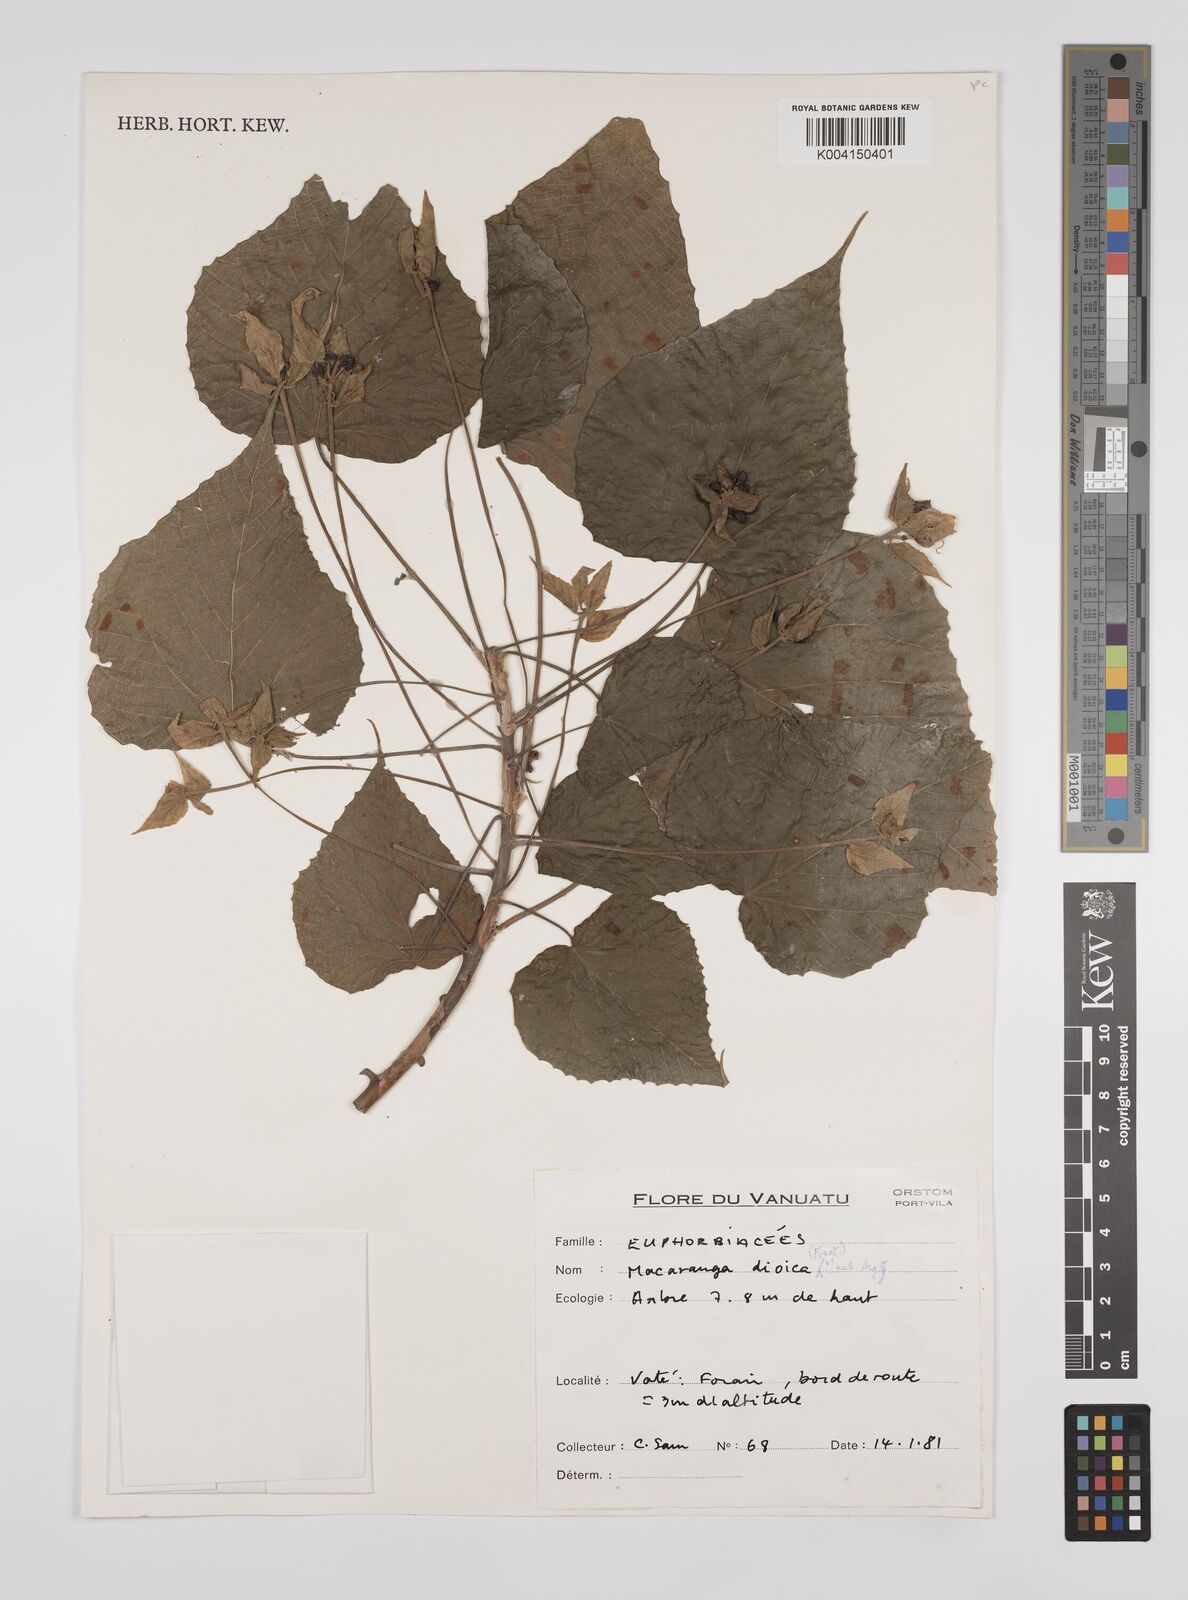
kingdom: Plantae
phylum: Tracheophyta
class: Magnoliopsida
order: Malpighiales
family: Euphorbiaceae
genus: Macaranga
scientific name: Macaranga dioica
